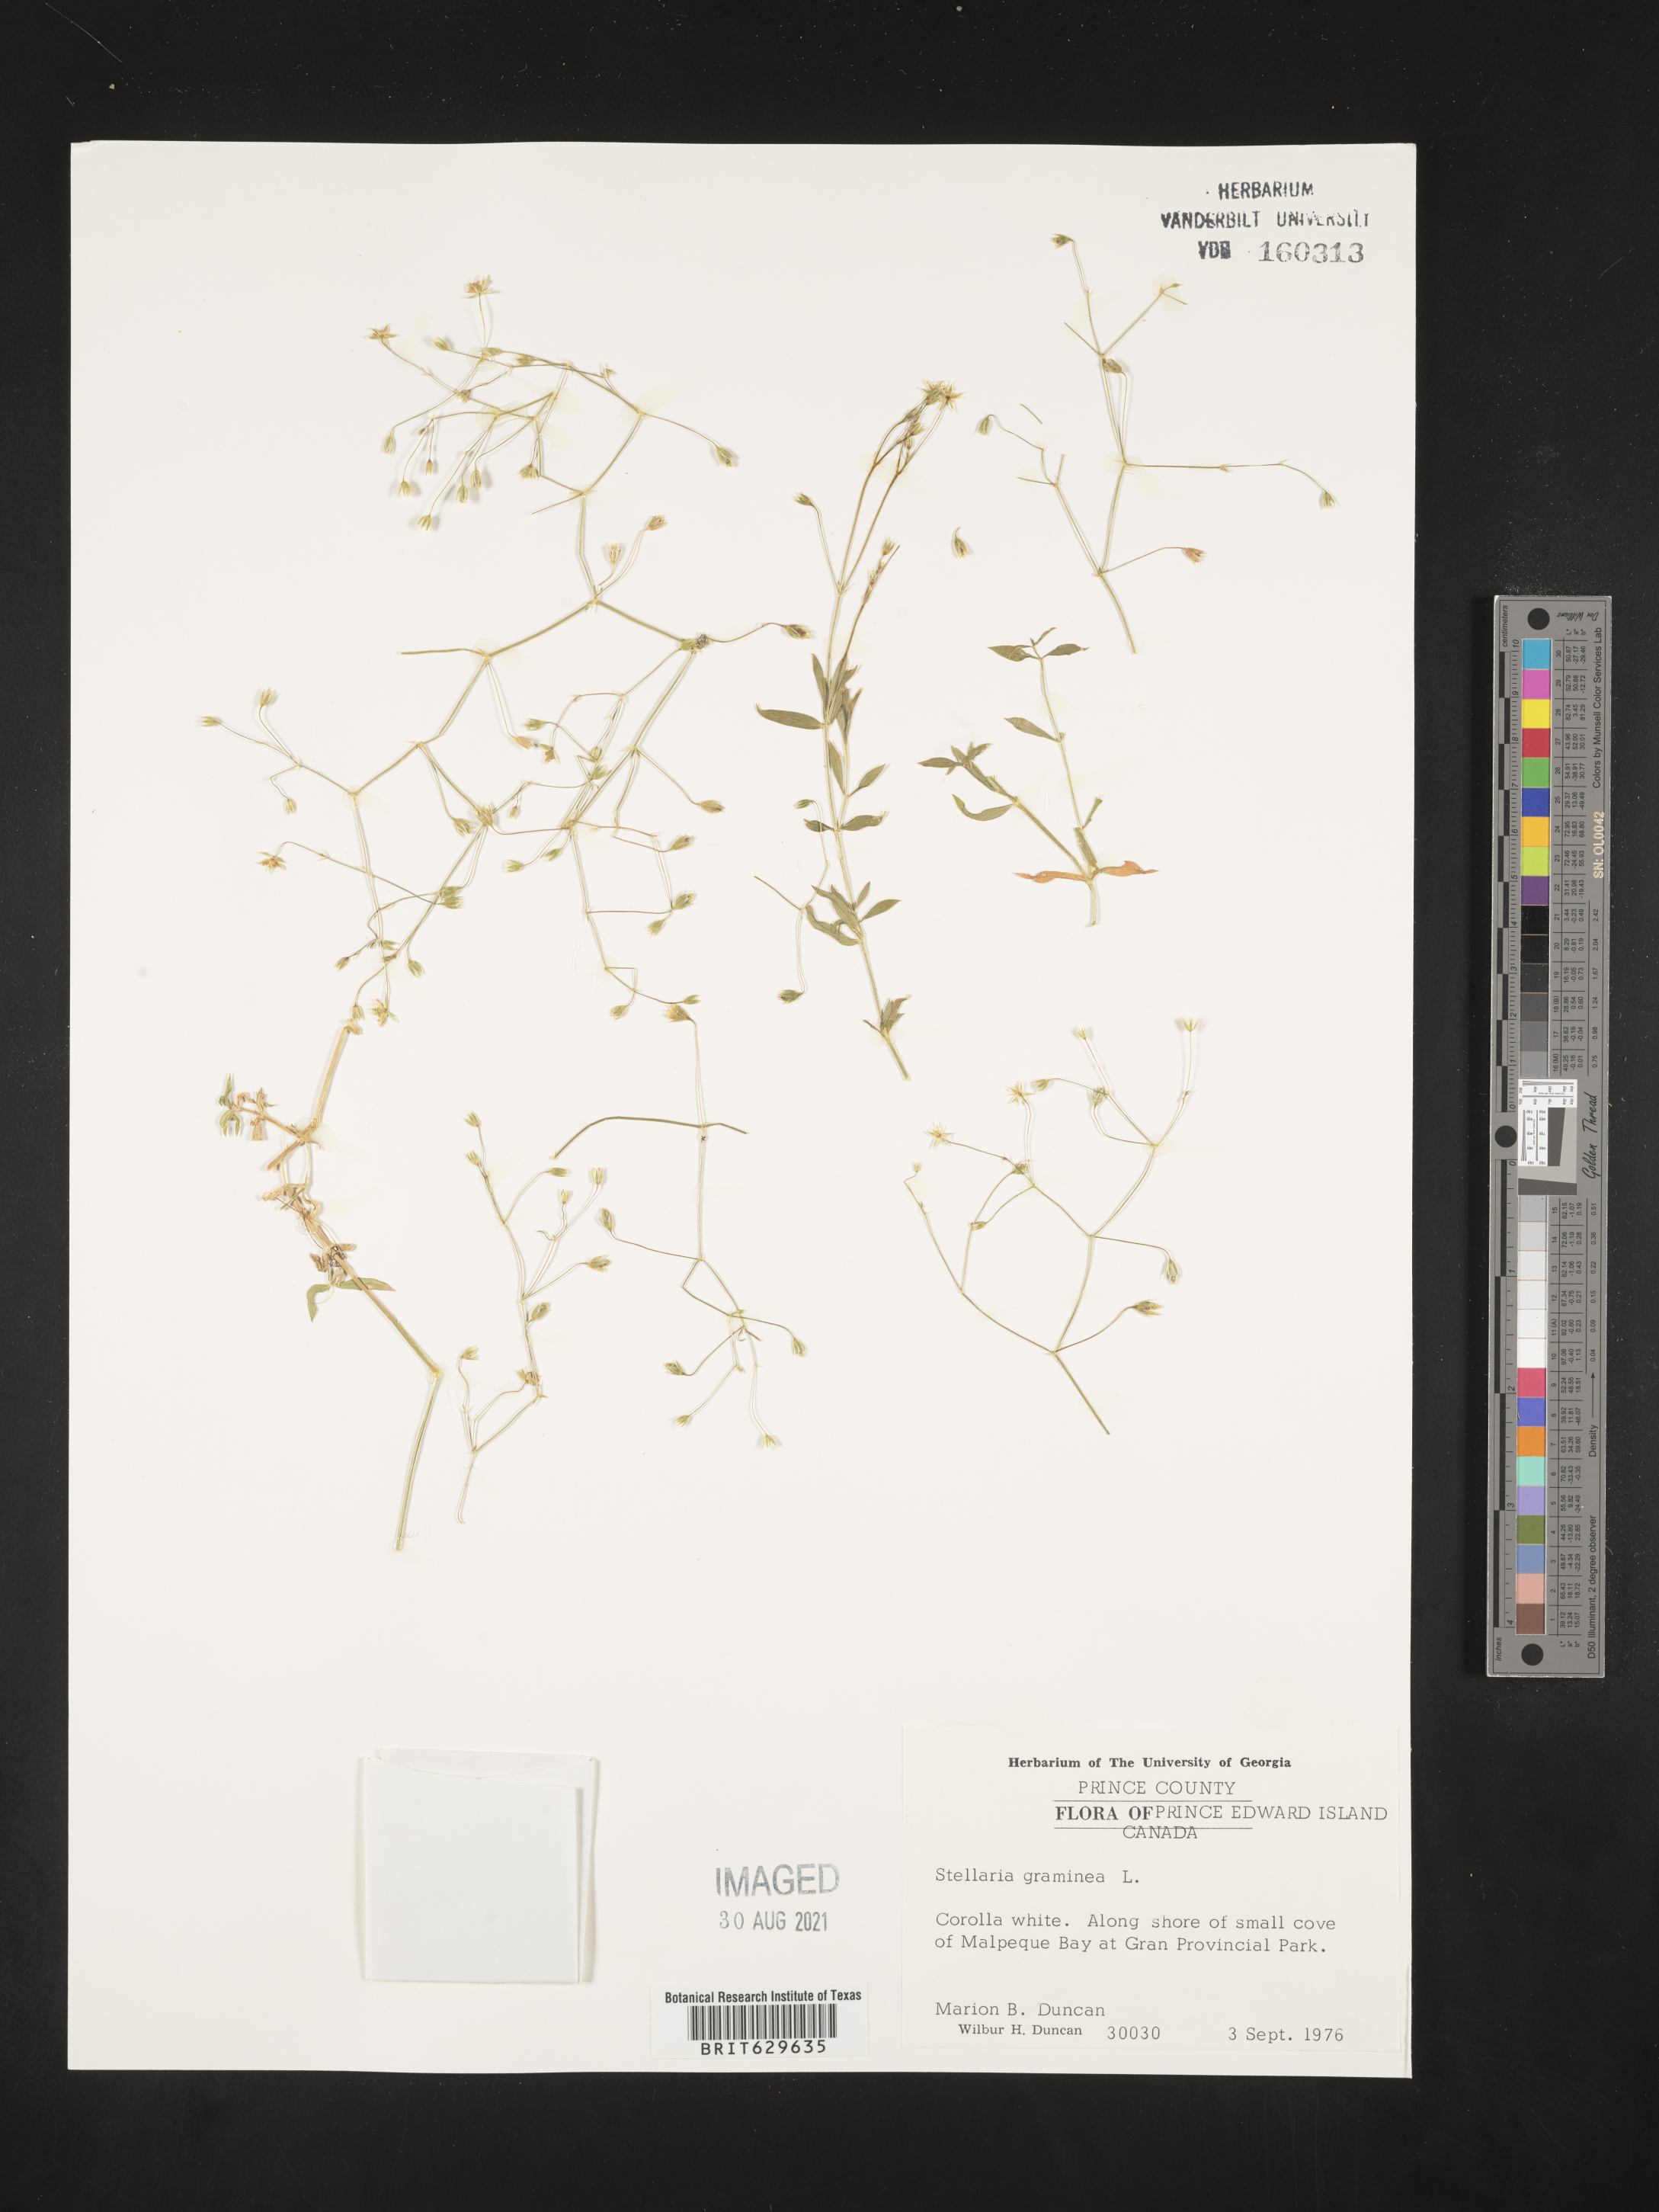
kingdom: Plantae
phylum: Tracheophyta
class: Magnoliopsida
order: Caryophyllales
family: Caryophyllaceae
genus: Stellaria
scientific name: Stellaria graminea
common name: Grass-like starwort
